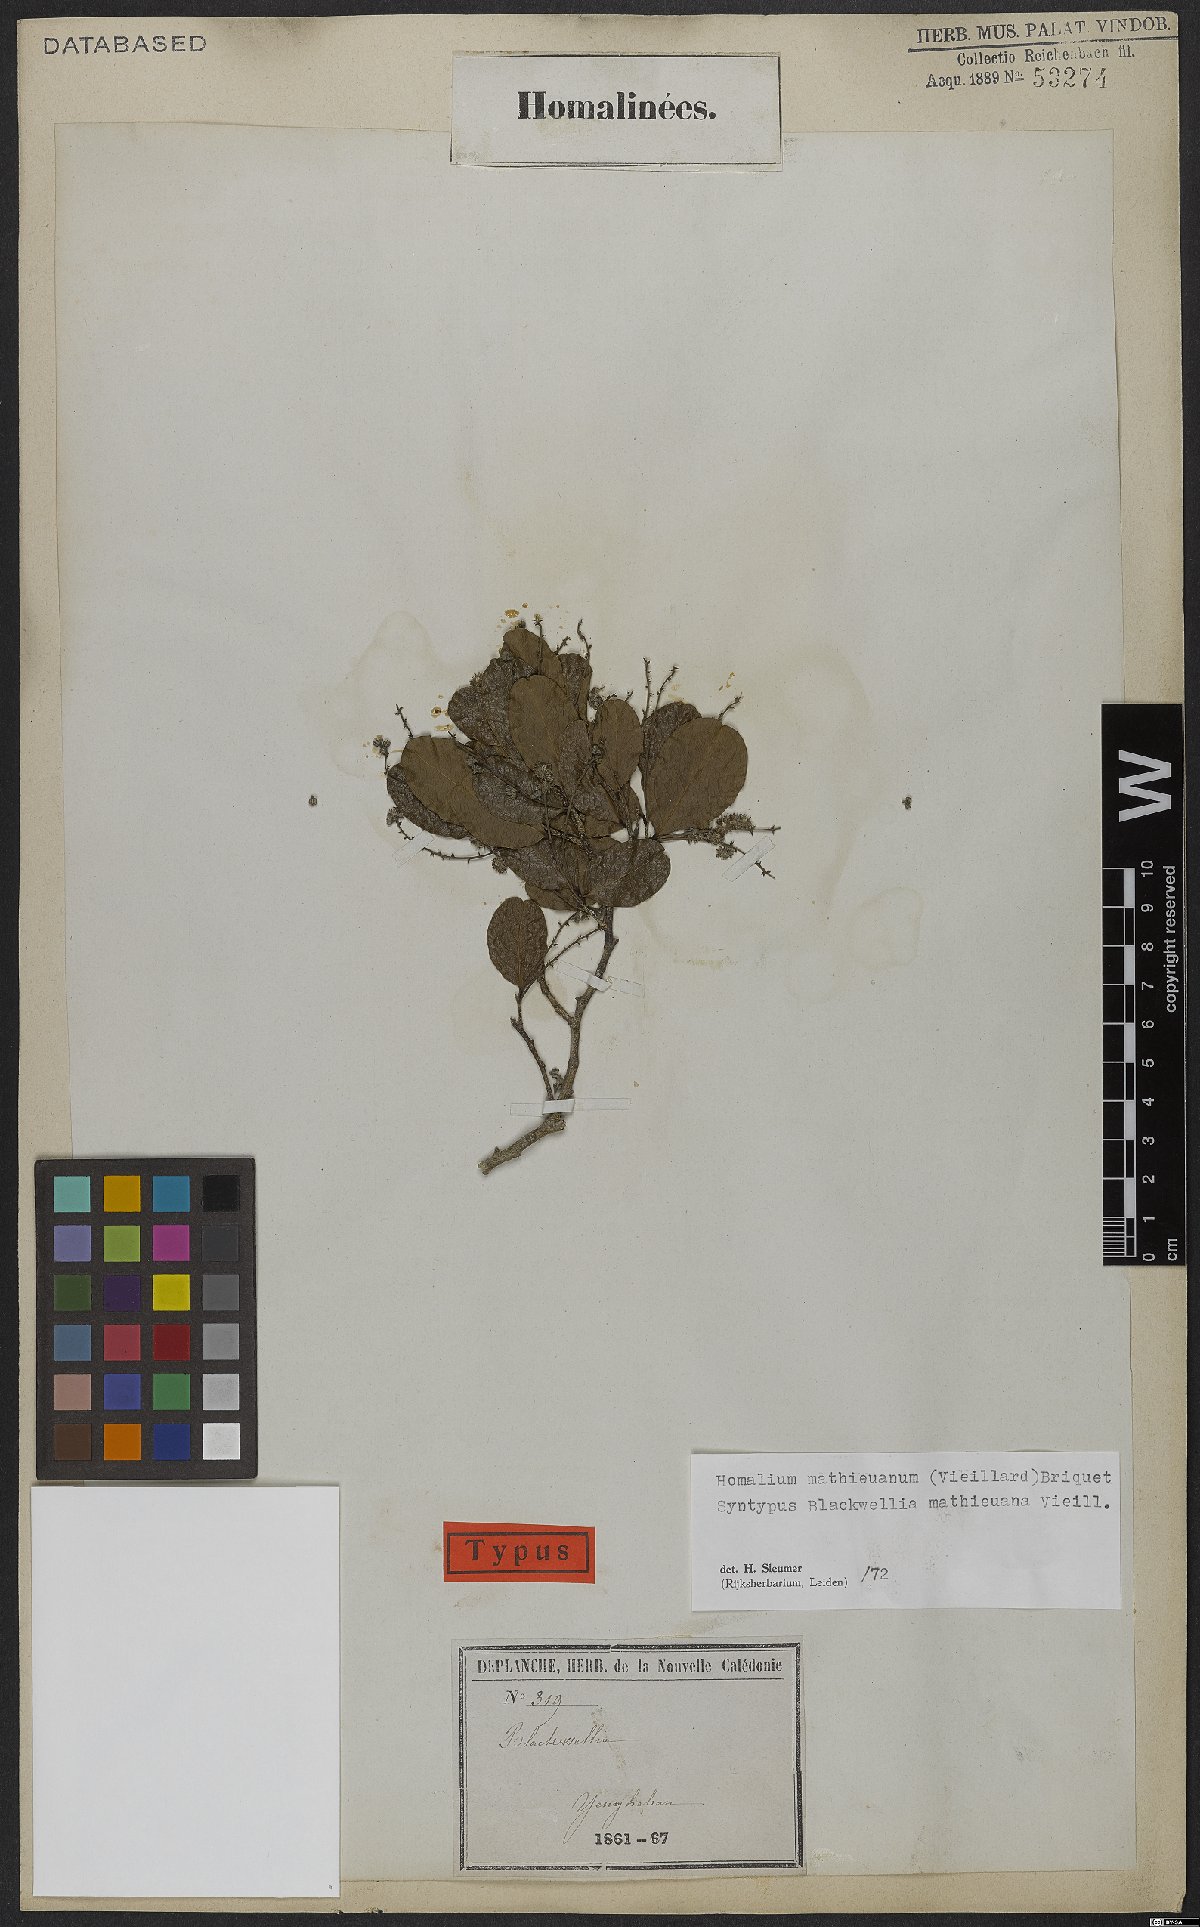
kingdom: Plantae
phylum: Tracheophyta
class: Magnoliopsida
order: Malpighiales
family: Salicaceae
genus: Homalium
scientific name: Homalium mathieuanum
